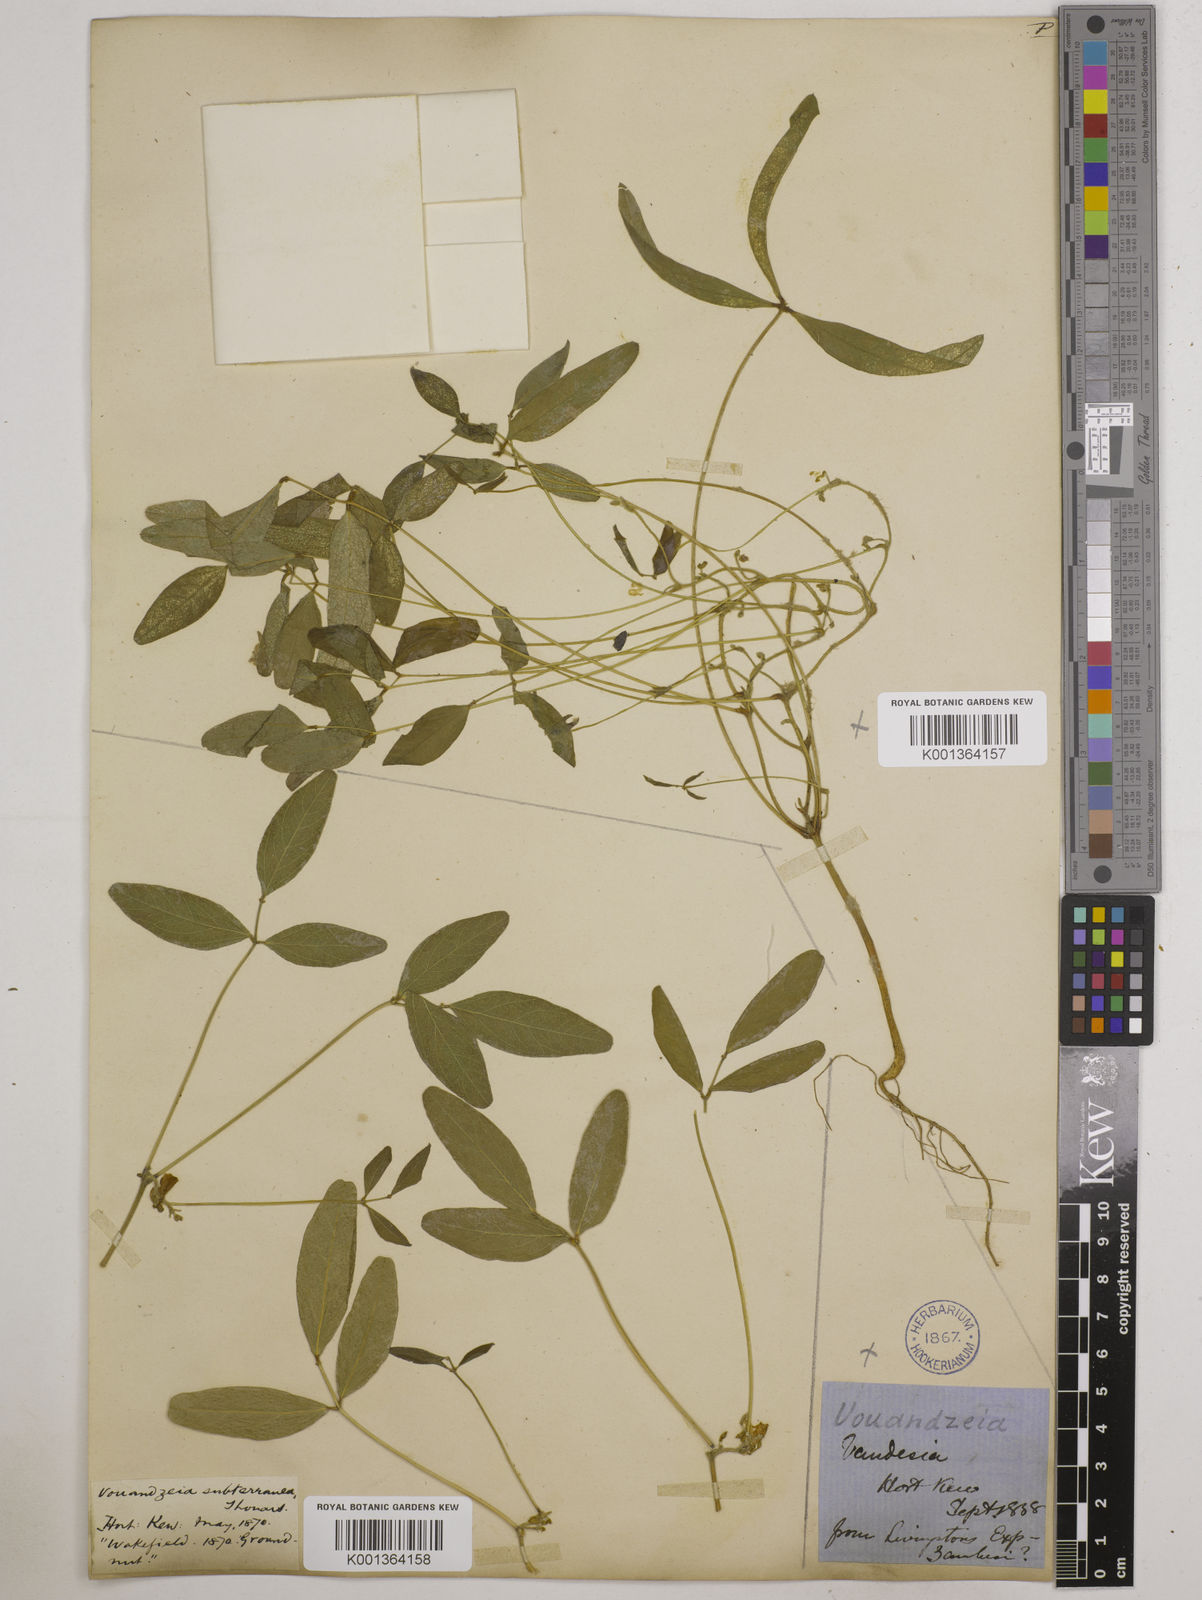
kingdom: Plantae
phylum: Tracheophyta
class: Magnoliopsida
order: Fabales
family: Fabaceae
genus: Vigna
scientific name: Vigna subterranea
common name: Bambara groundnut
